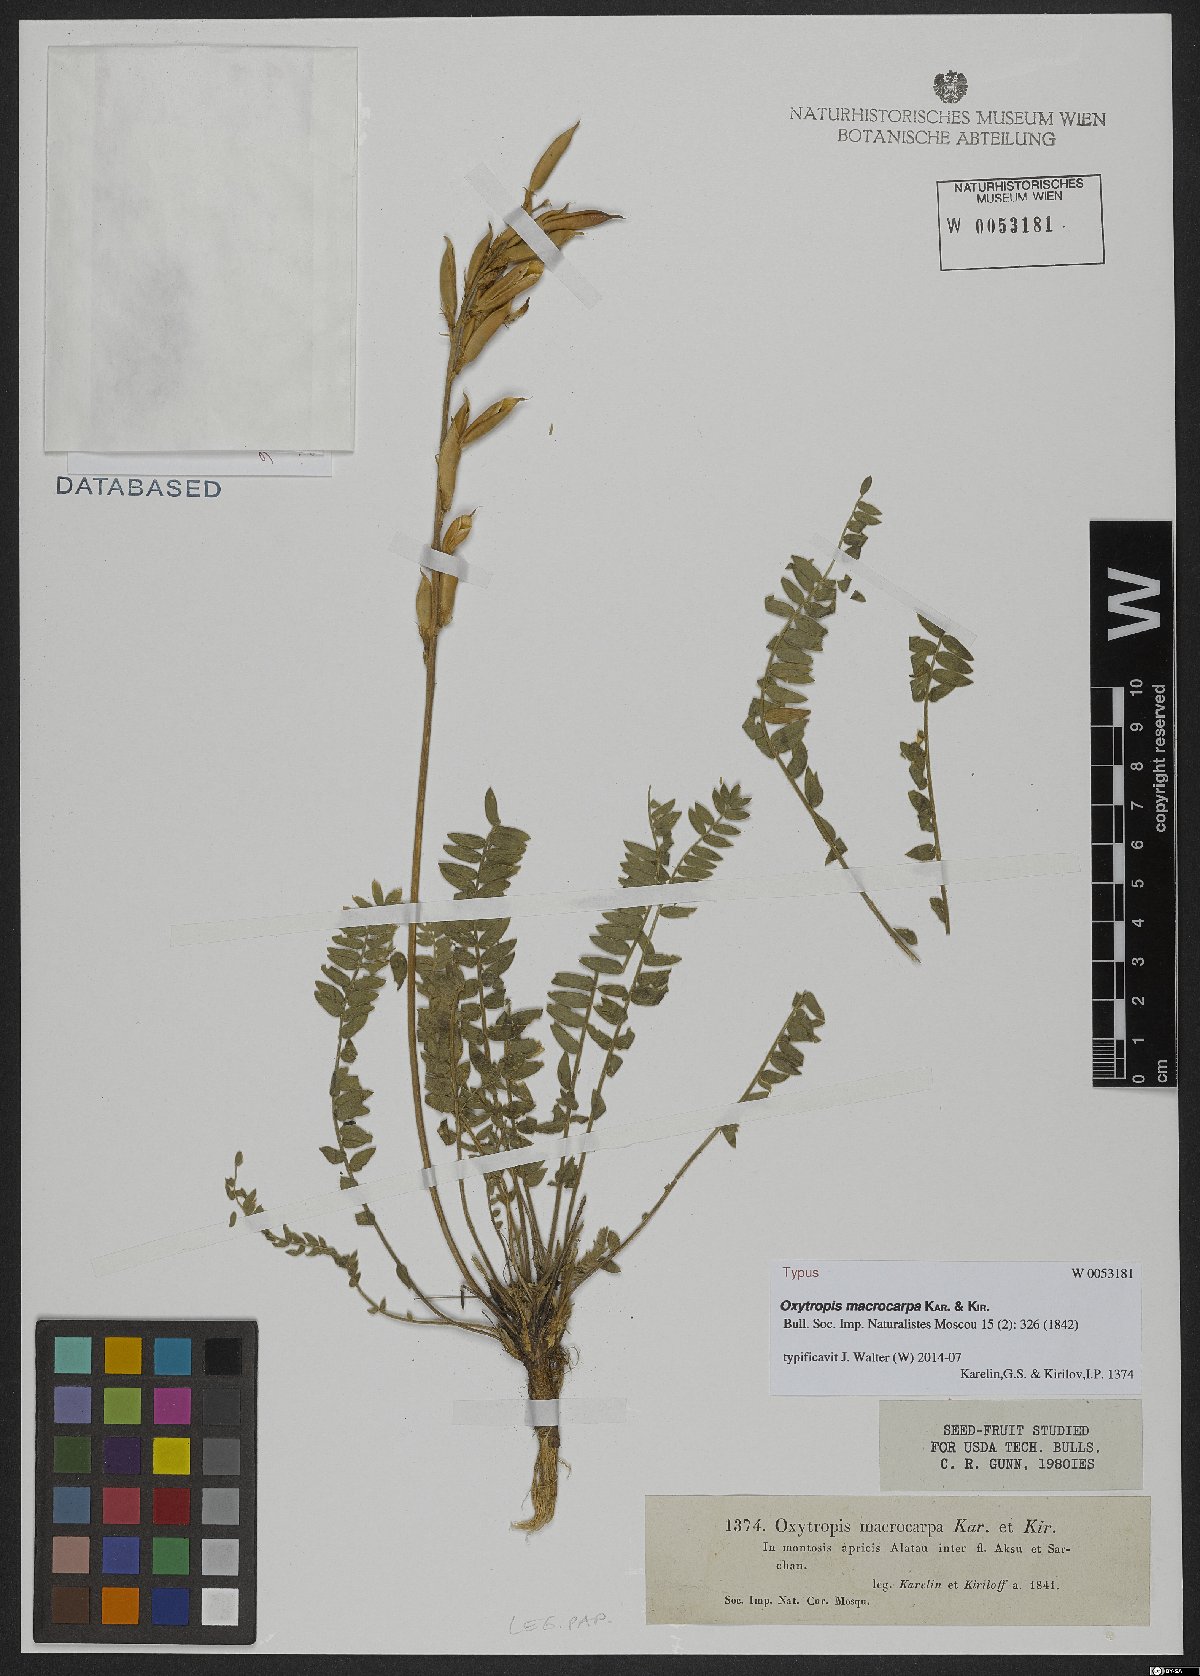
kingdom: Plantae
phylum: Tracheophyta
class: Magnoliopsida
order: Fabales
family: Fabaceae
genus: Oxytropis
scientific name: Oxytropis macrocarpa
